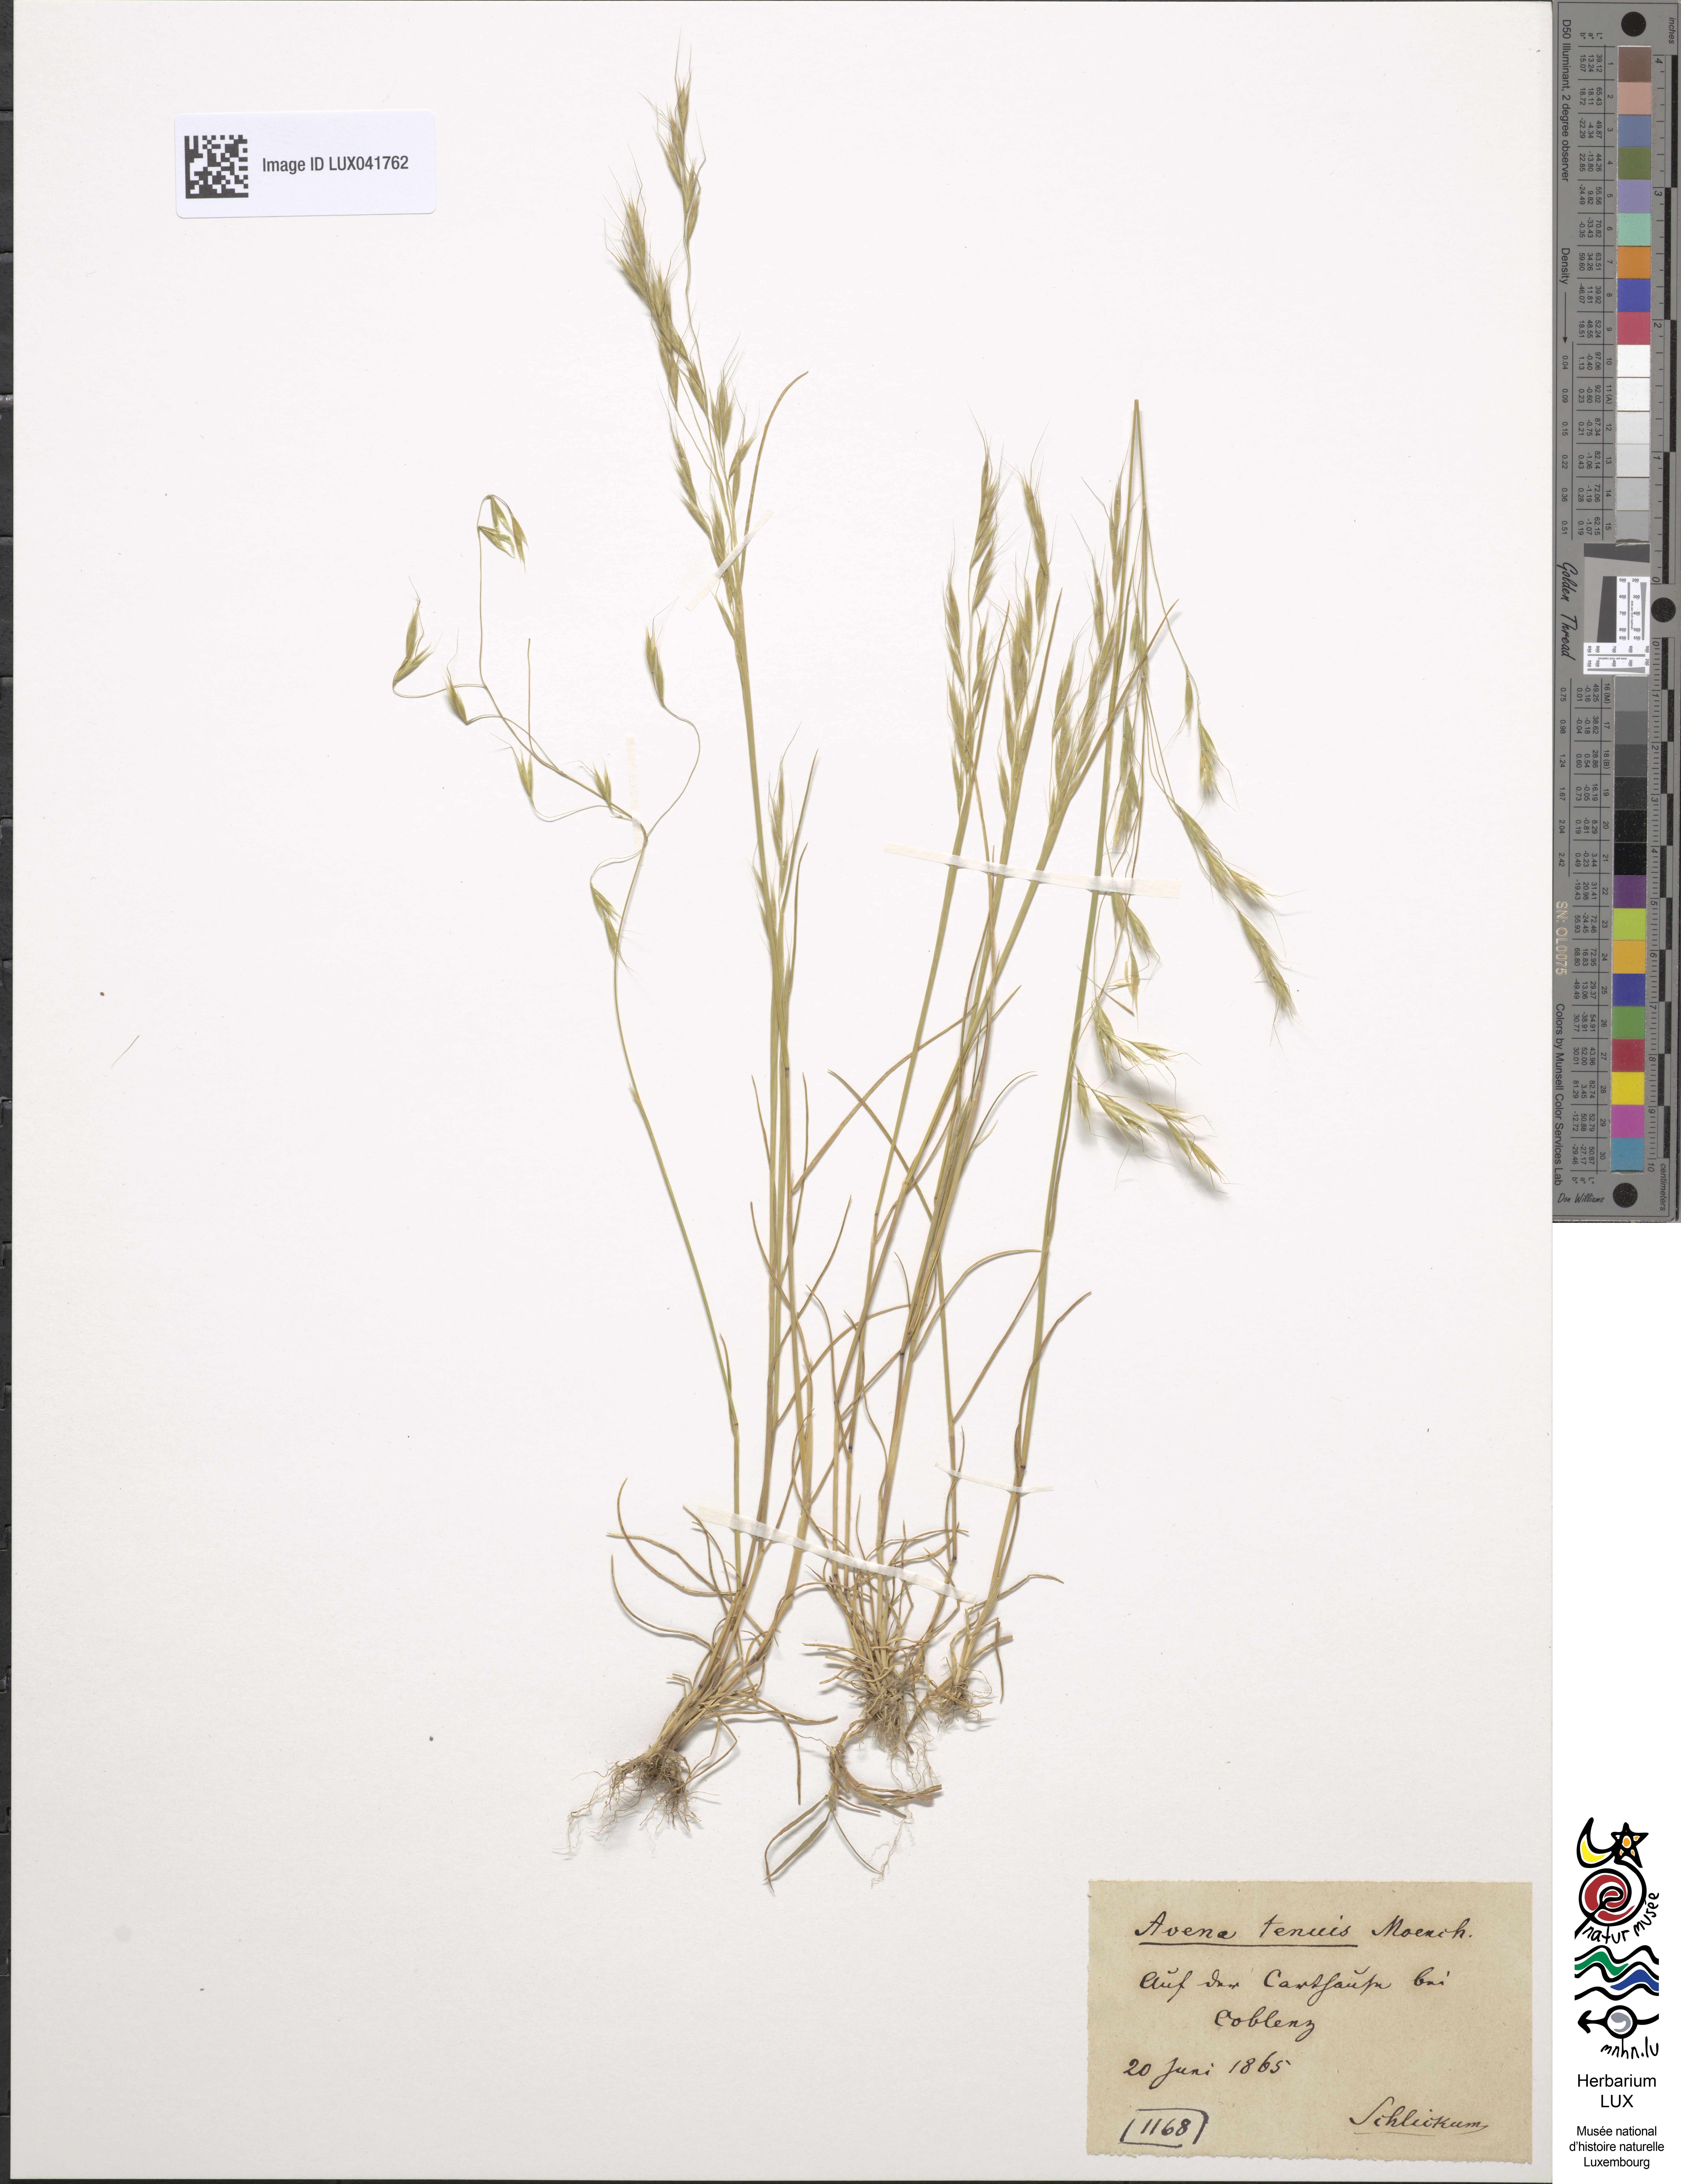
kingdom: Plantae
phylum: Tracheophyta
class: Liliopsida
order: Poales
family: Poaceae
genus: Ventenata
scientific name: Ventenata dubia
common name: North africa grass
